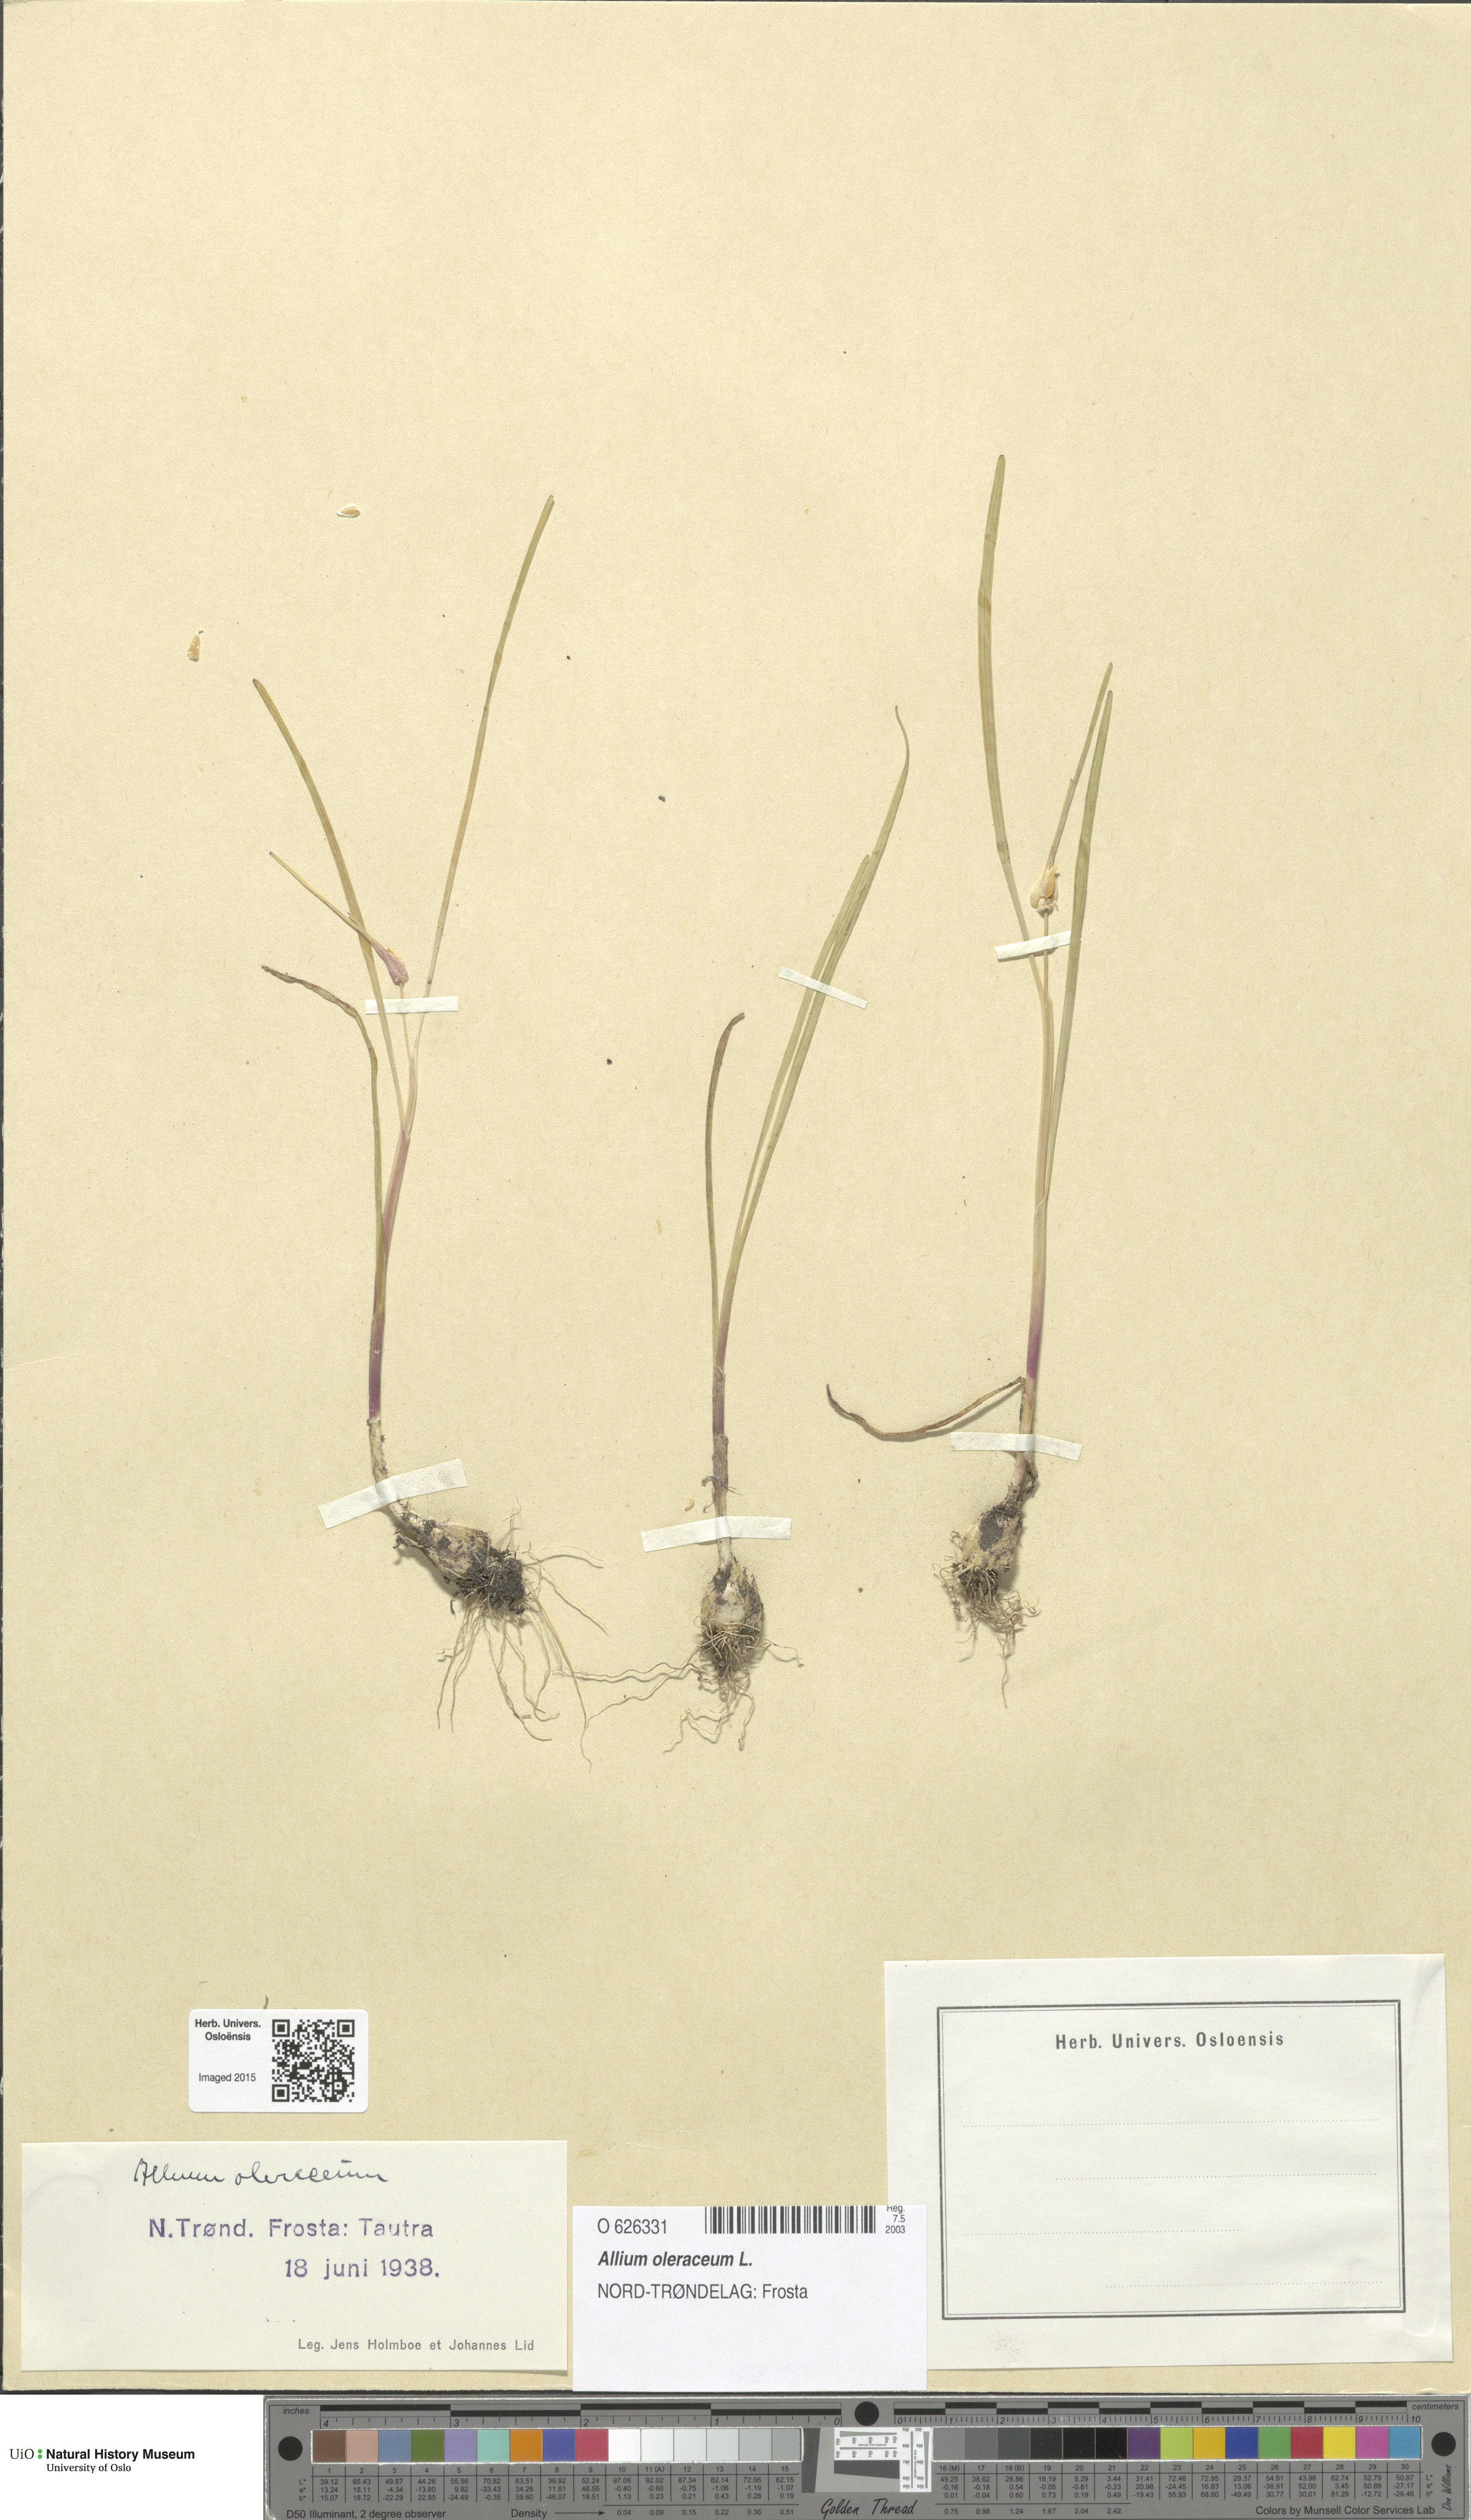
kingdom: Plantae
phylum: Tracheophyta
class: Liliopsida
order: Asparagales
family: Amaryllidaceae
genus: Allium
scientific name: Allium oleraceum
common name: Field garlic
